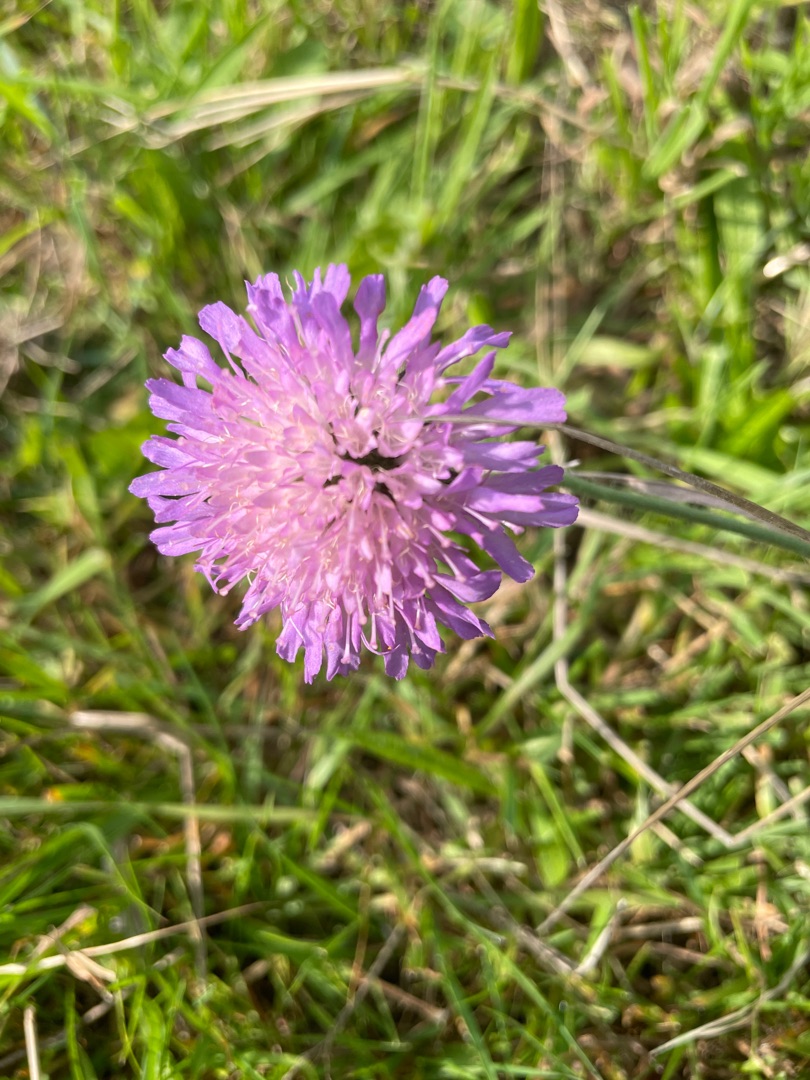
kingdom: Plantae
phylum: Tracheophyta
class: Magnoliopsida
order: Dipsacales
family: Caprifoliaceae
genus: Knautia
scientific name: Knautia arvensis
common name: Blåhat
